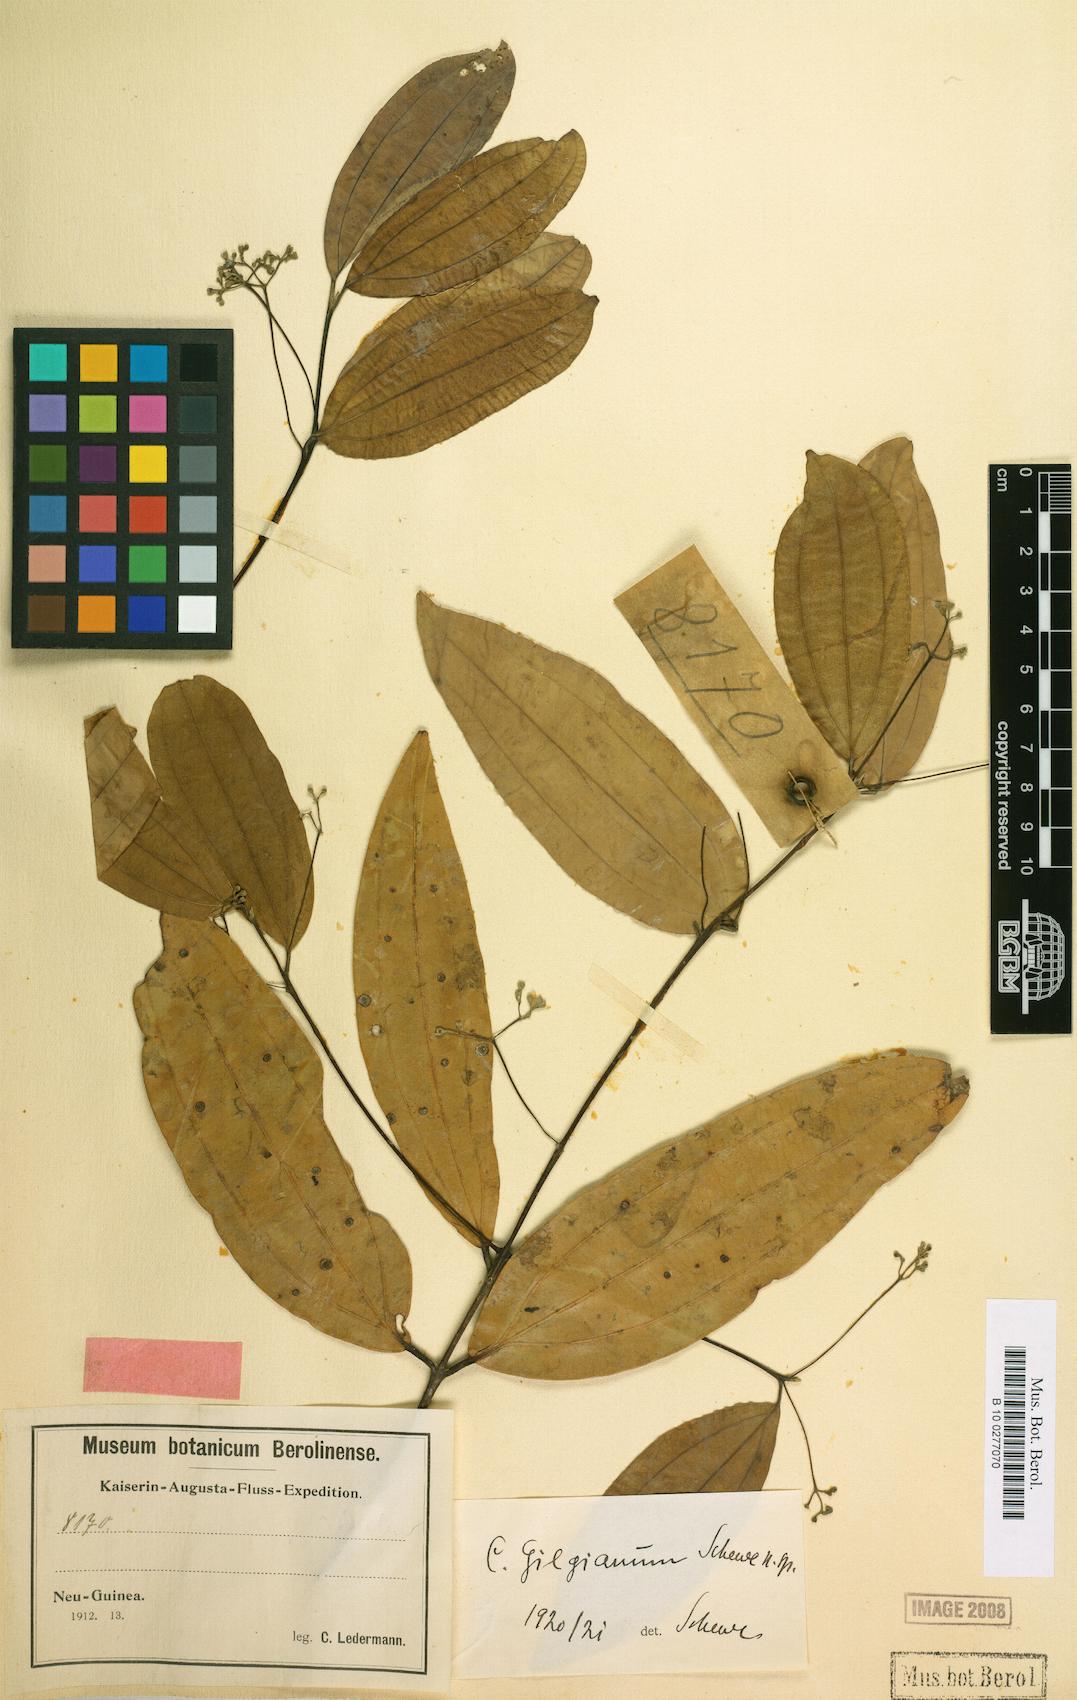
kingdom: Plantae
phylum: Tracheophyta
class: Magnoliopsida
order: Laurales
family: Lauraceae
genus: Cinnamomum
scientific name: Cinnamomum piniodorum
